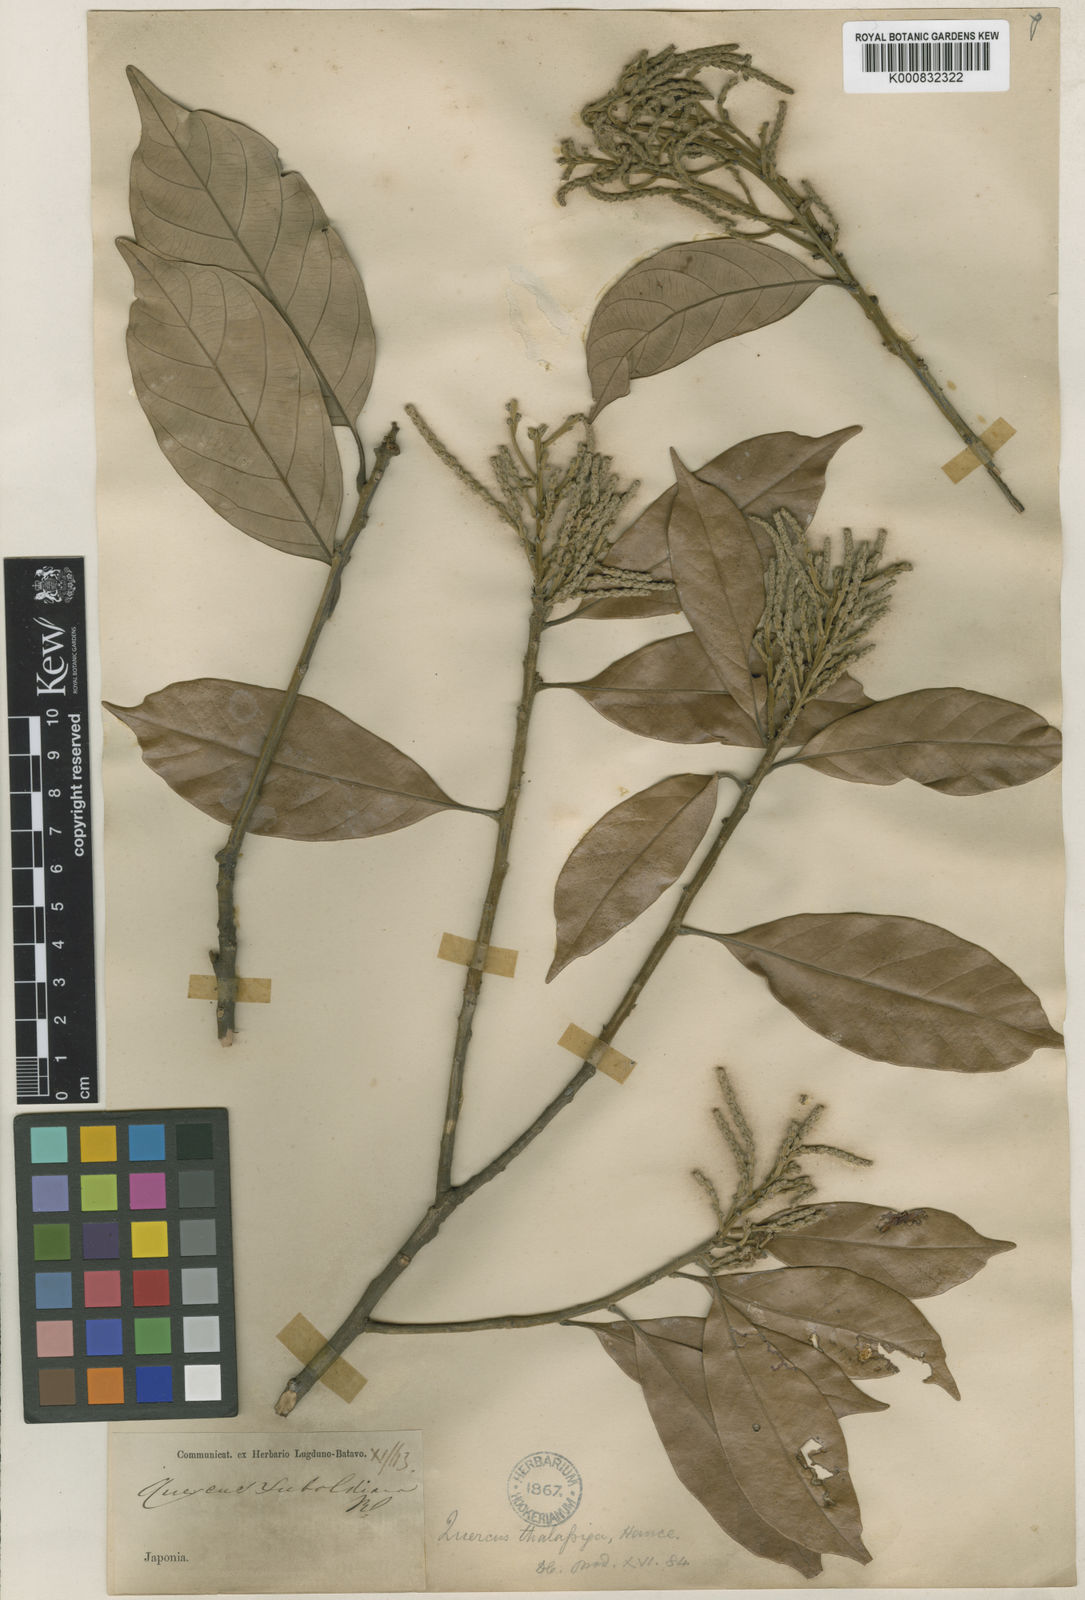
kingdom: Plantae
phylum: Tracheophyta
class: Magnoliopsida
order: Fagales
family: Fagaceae
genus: Lithocarpus
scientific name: Lithocarpus
